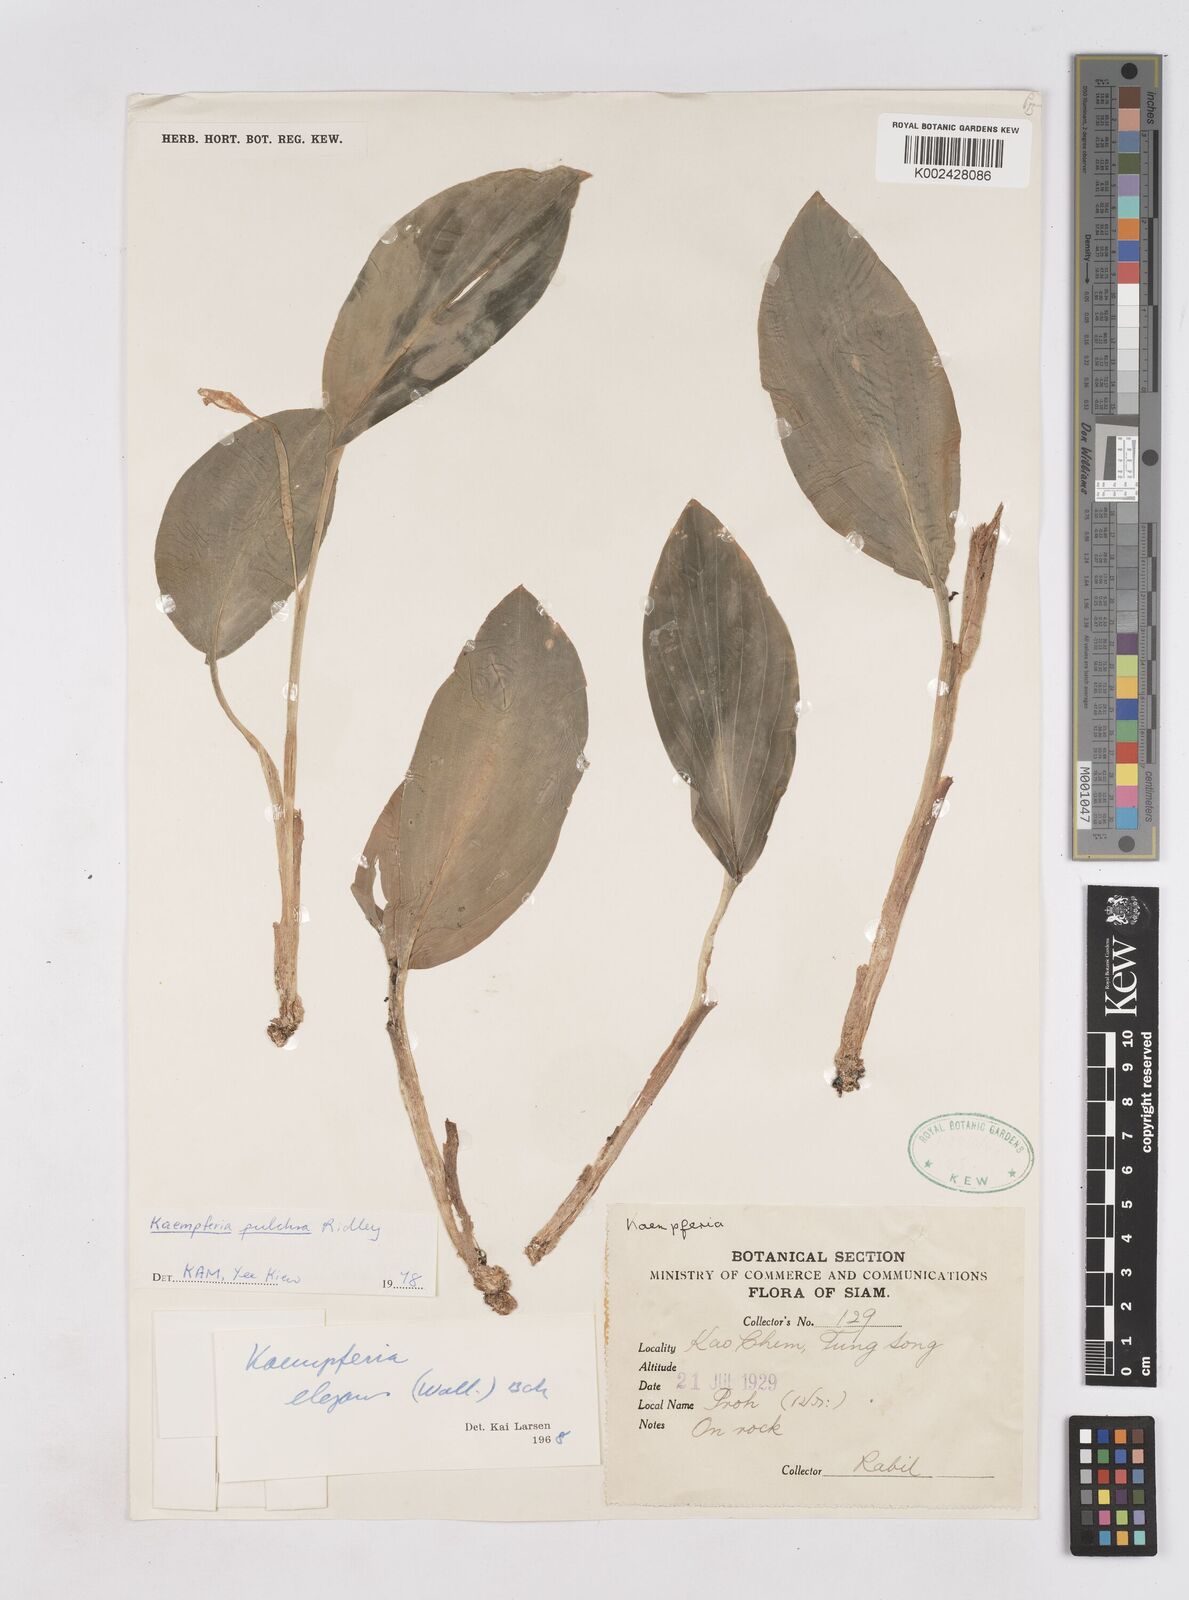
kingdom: Plantae
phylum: Tracheophyta
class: Liliopsida
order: Zingiberales
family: Zingiberaceae
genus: Kaempferia
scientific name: Kaempferia elegans
